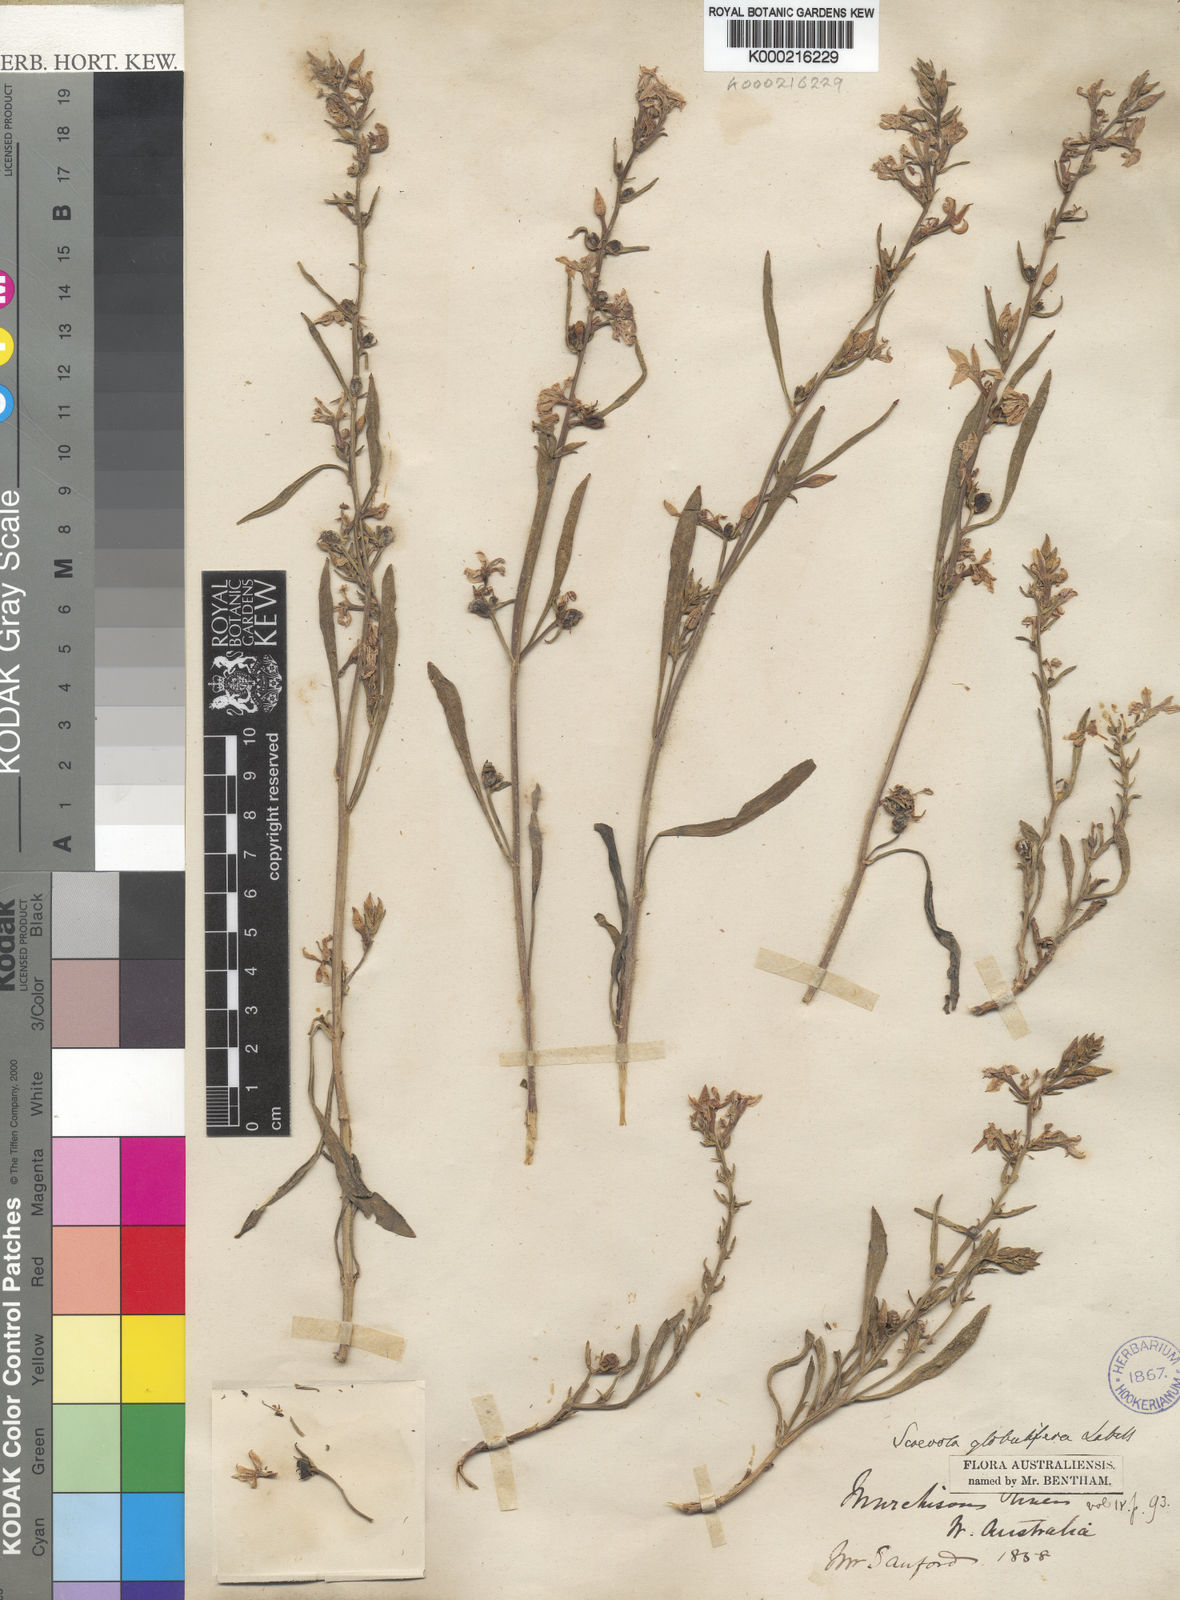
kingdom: Plantae
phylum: Tracheophyta
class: Magnoliopsida
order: Asterales
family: Goodeniaceae
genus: Scaevola
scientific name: Scaevola globulifera
